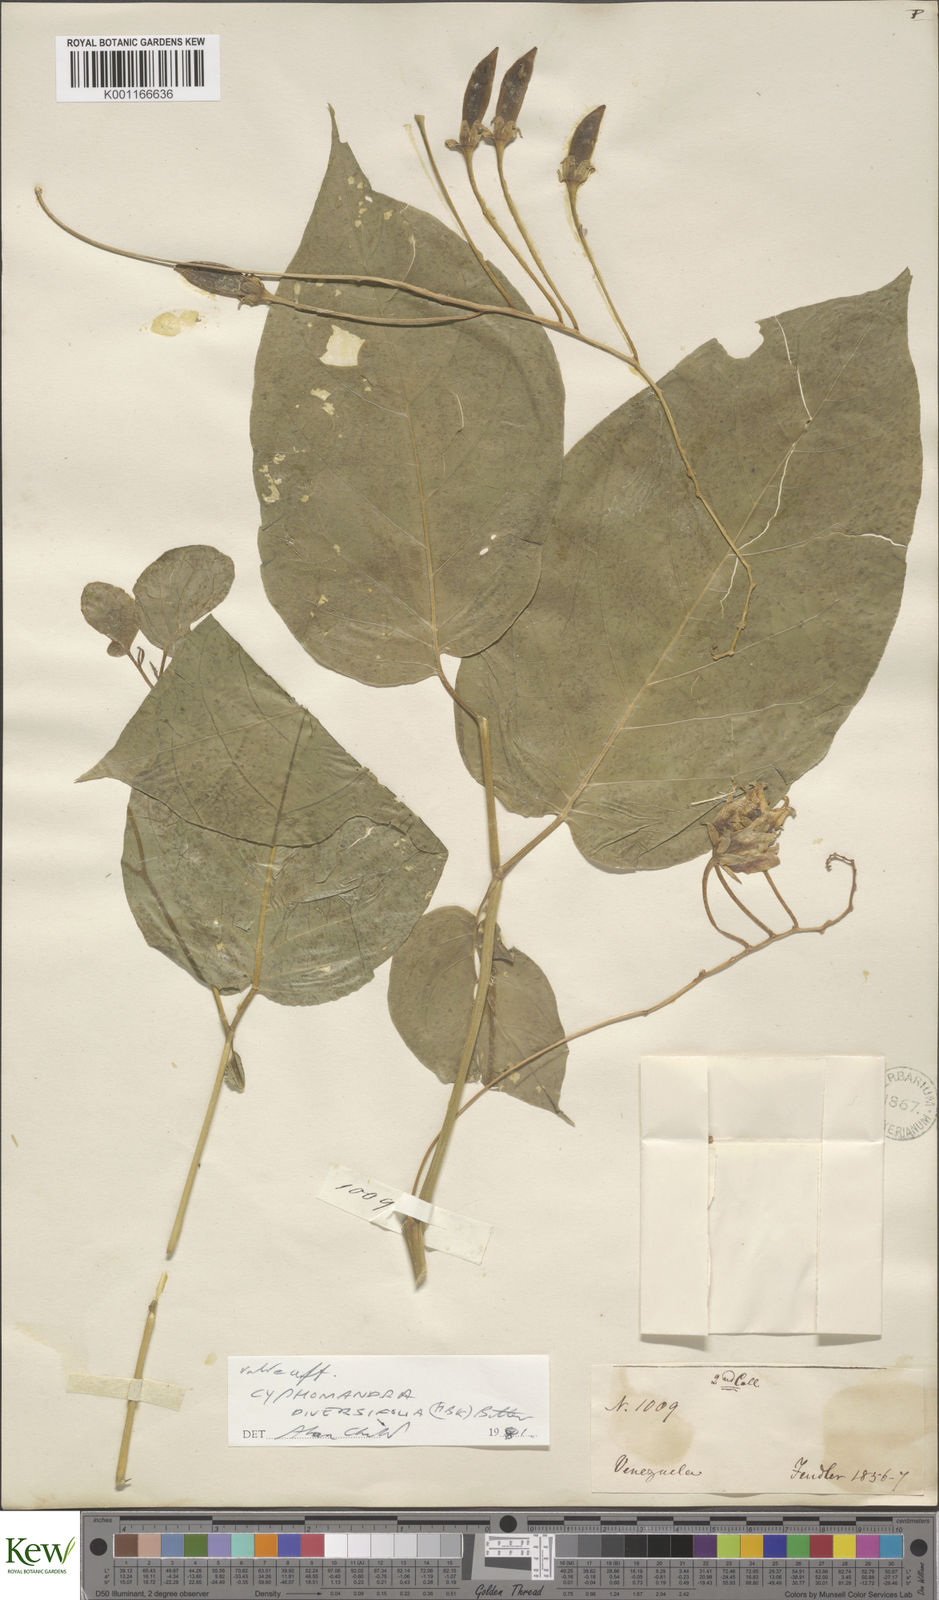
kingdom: Plantae
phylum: Tracheophyta
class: Magnoliopsida
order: Solanales
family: Solanaceae
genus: Solanum
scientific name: Solanum
